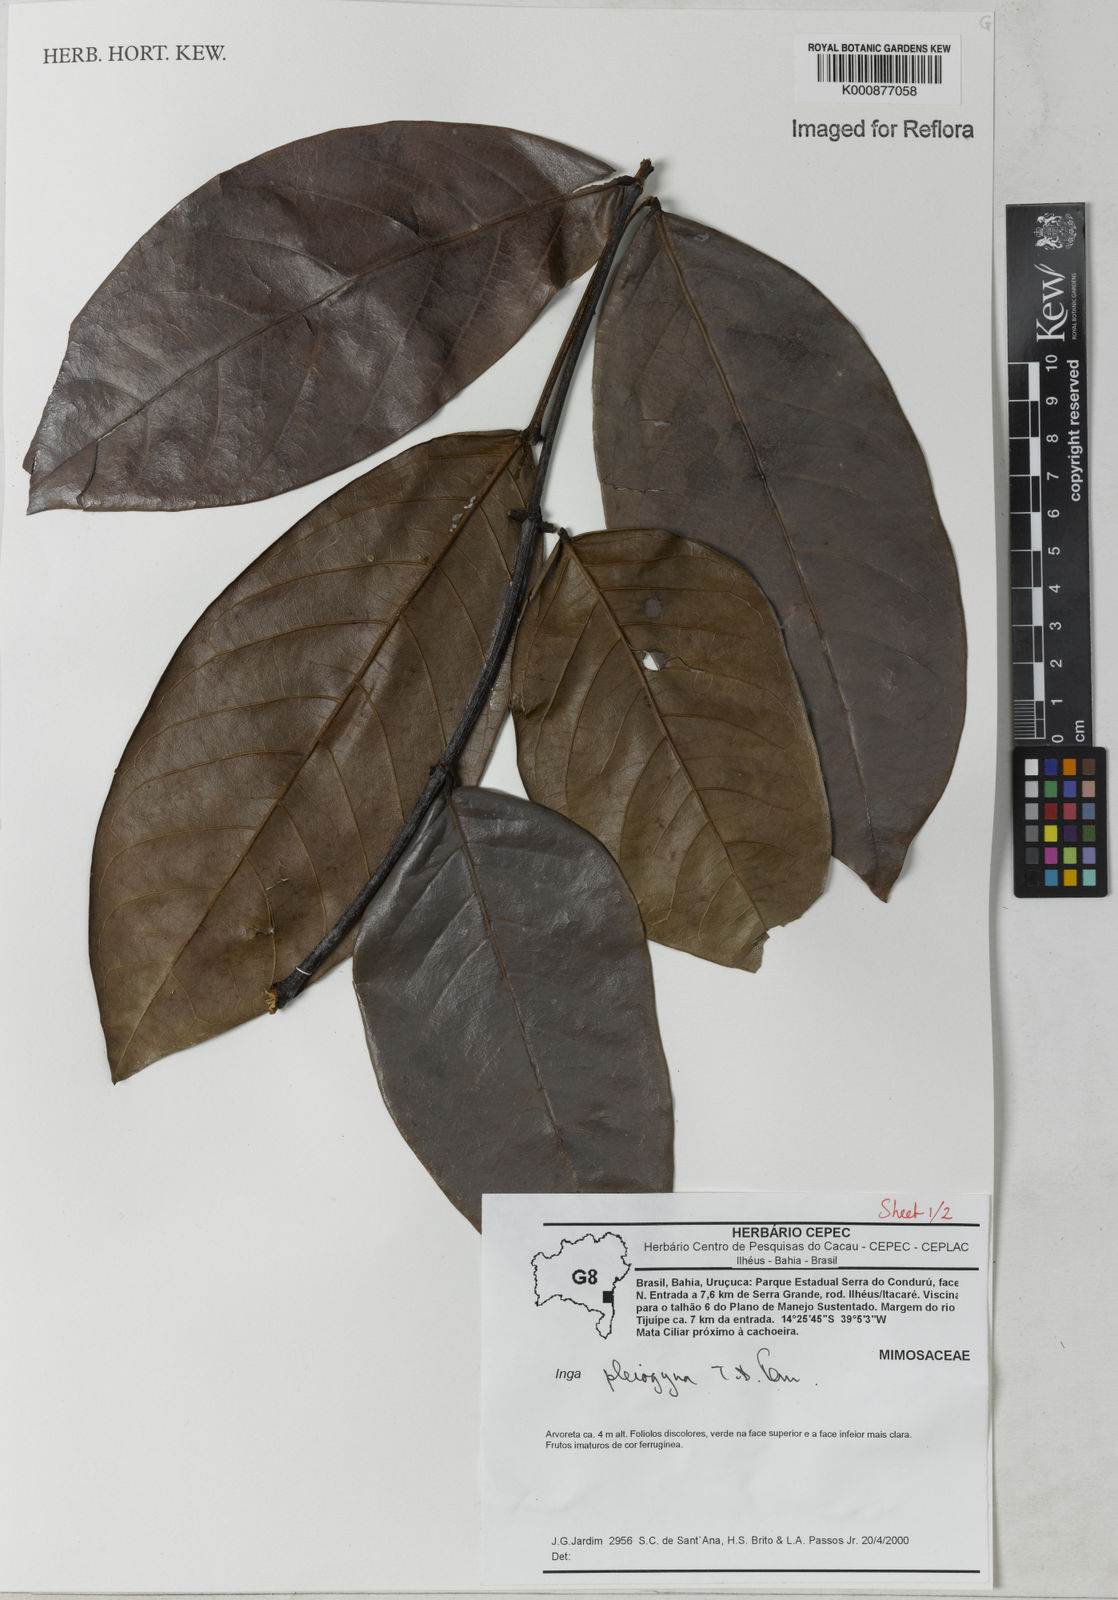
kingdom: Plantae
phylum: Tracheophyta
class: Magnoliopsida
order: Fabales
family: Fabaceae
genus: Inga
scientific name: Inga pleiogyna
